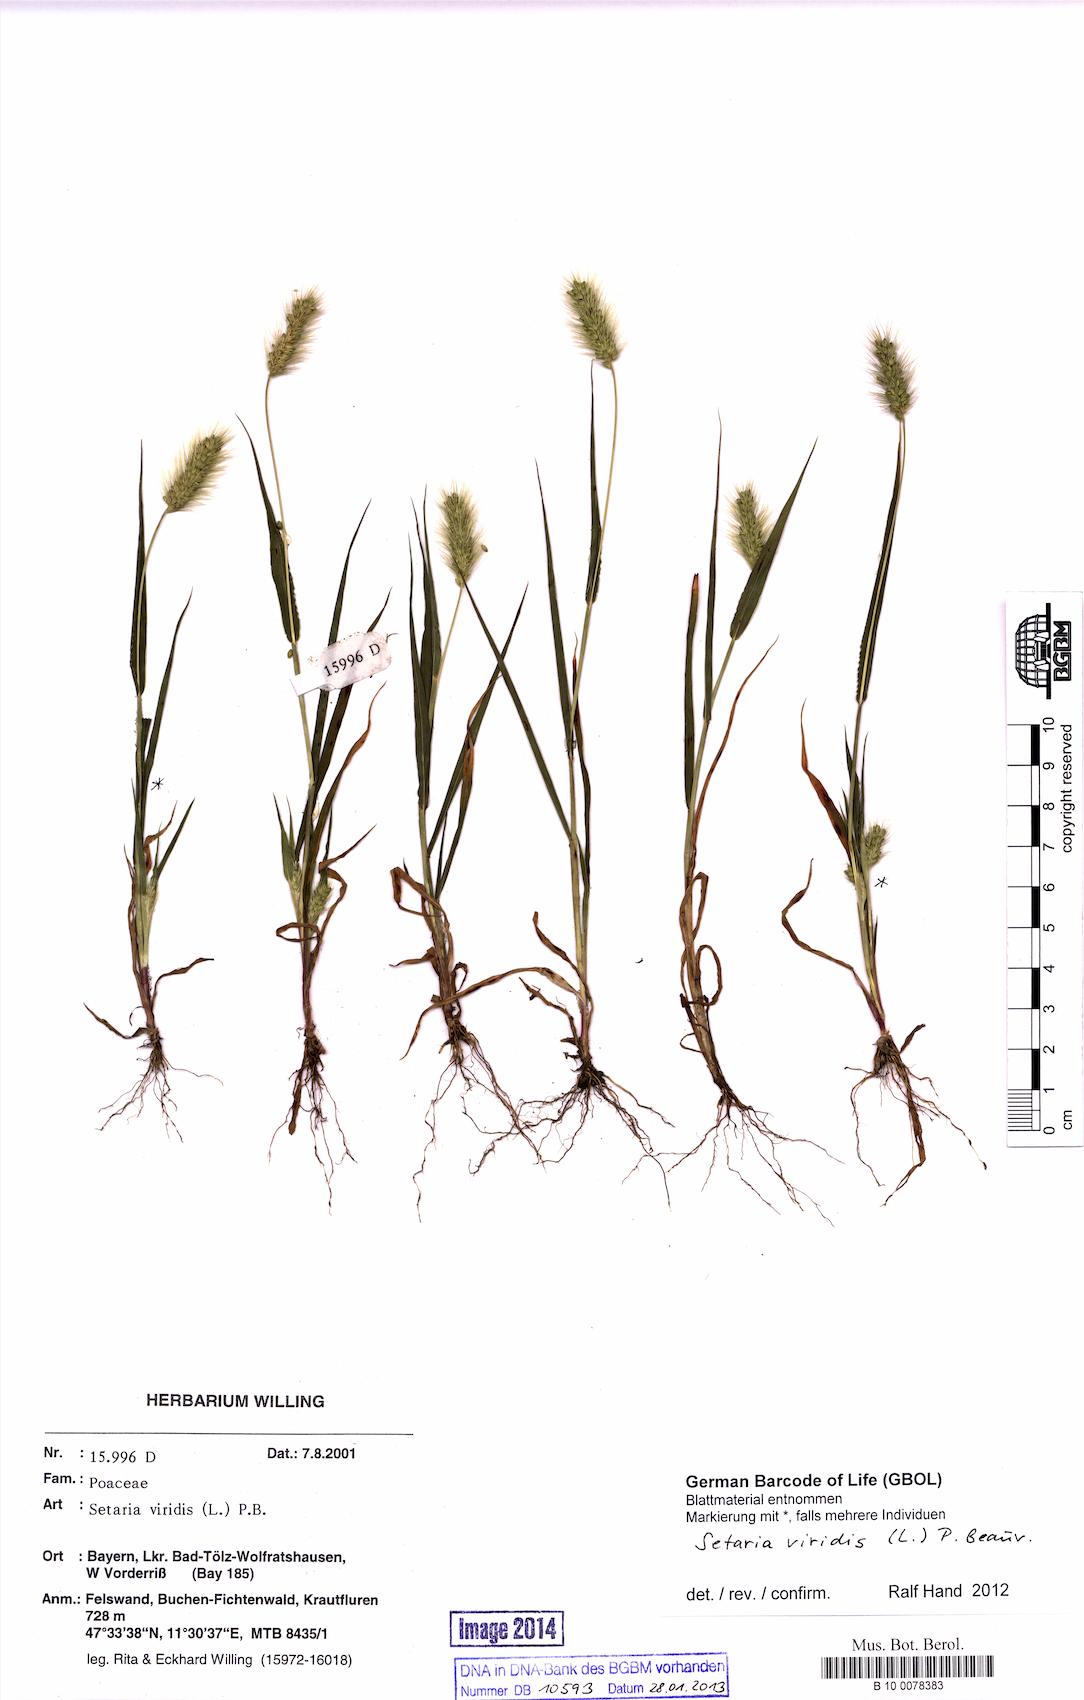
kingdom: Plantae
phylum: Tracheophyta
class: Liliopsida
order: Poales
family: Poaceae
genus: Setaria
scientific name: Setaria viridis
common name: Green bristlegrass
